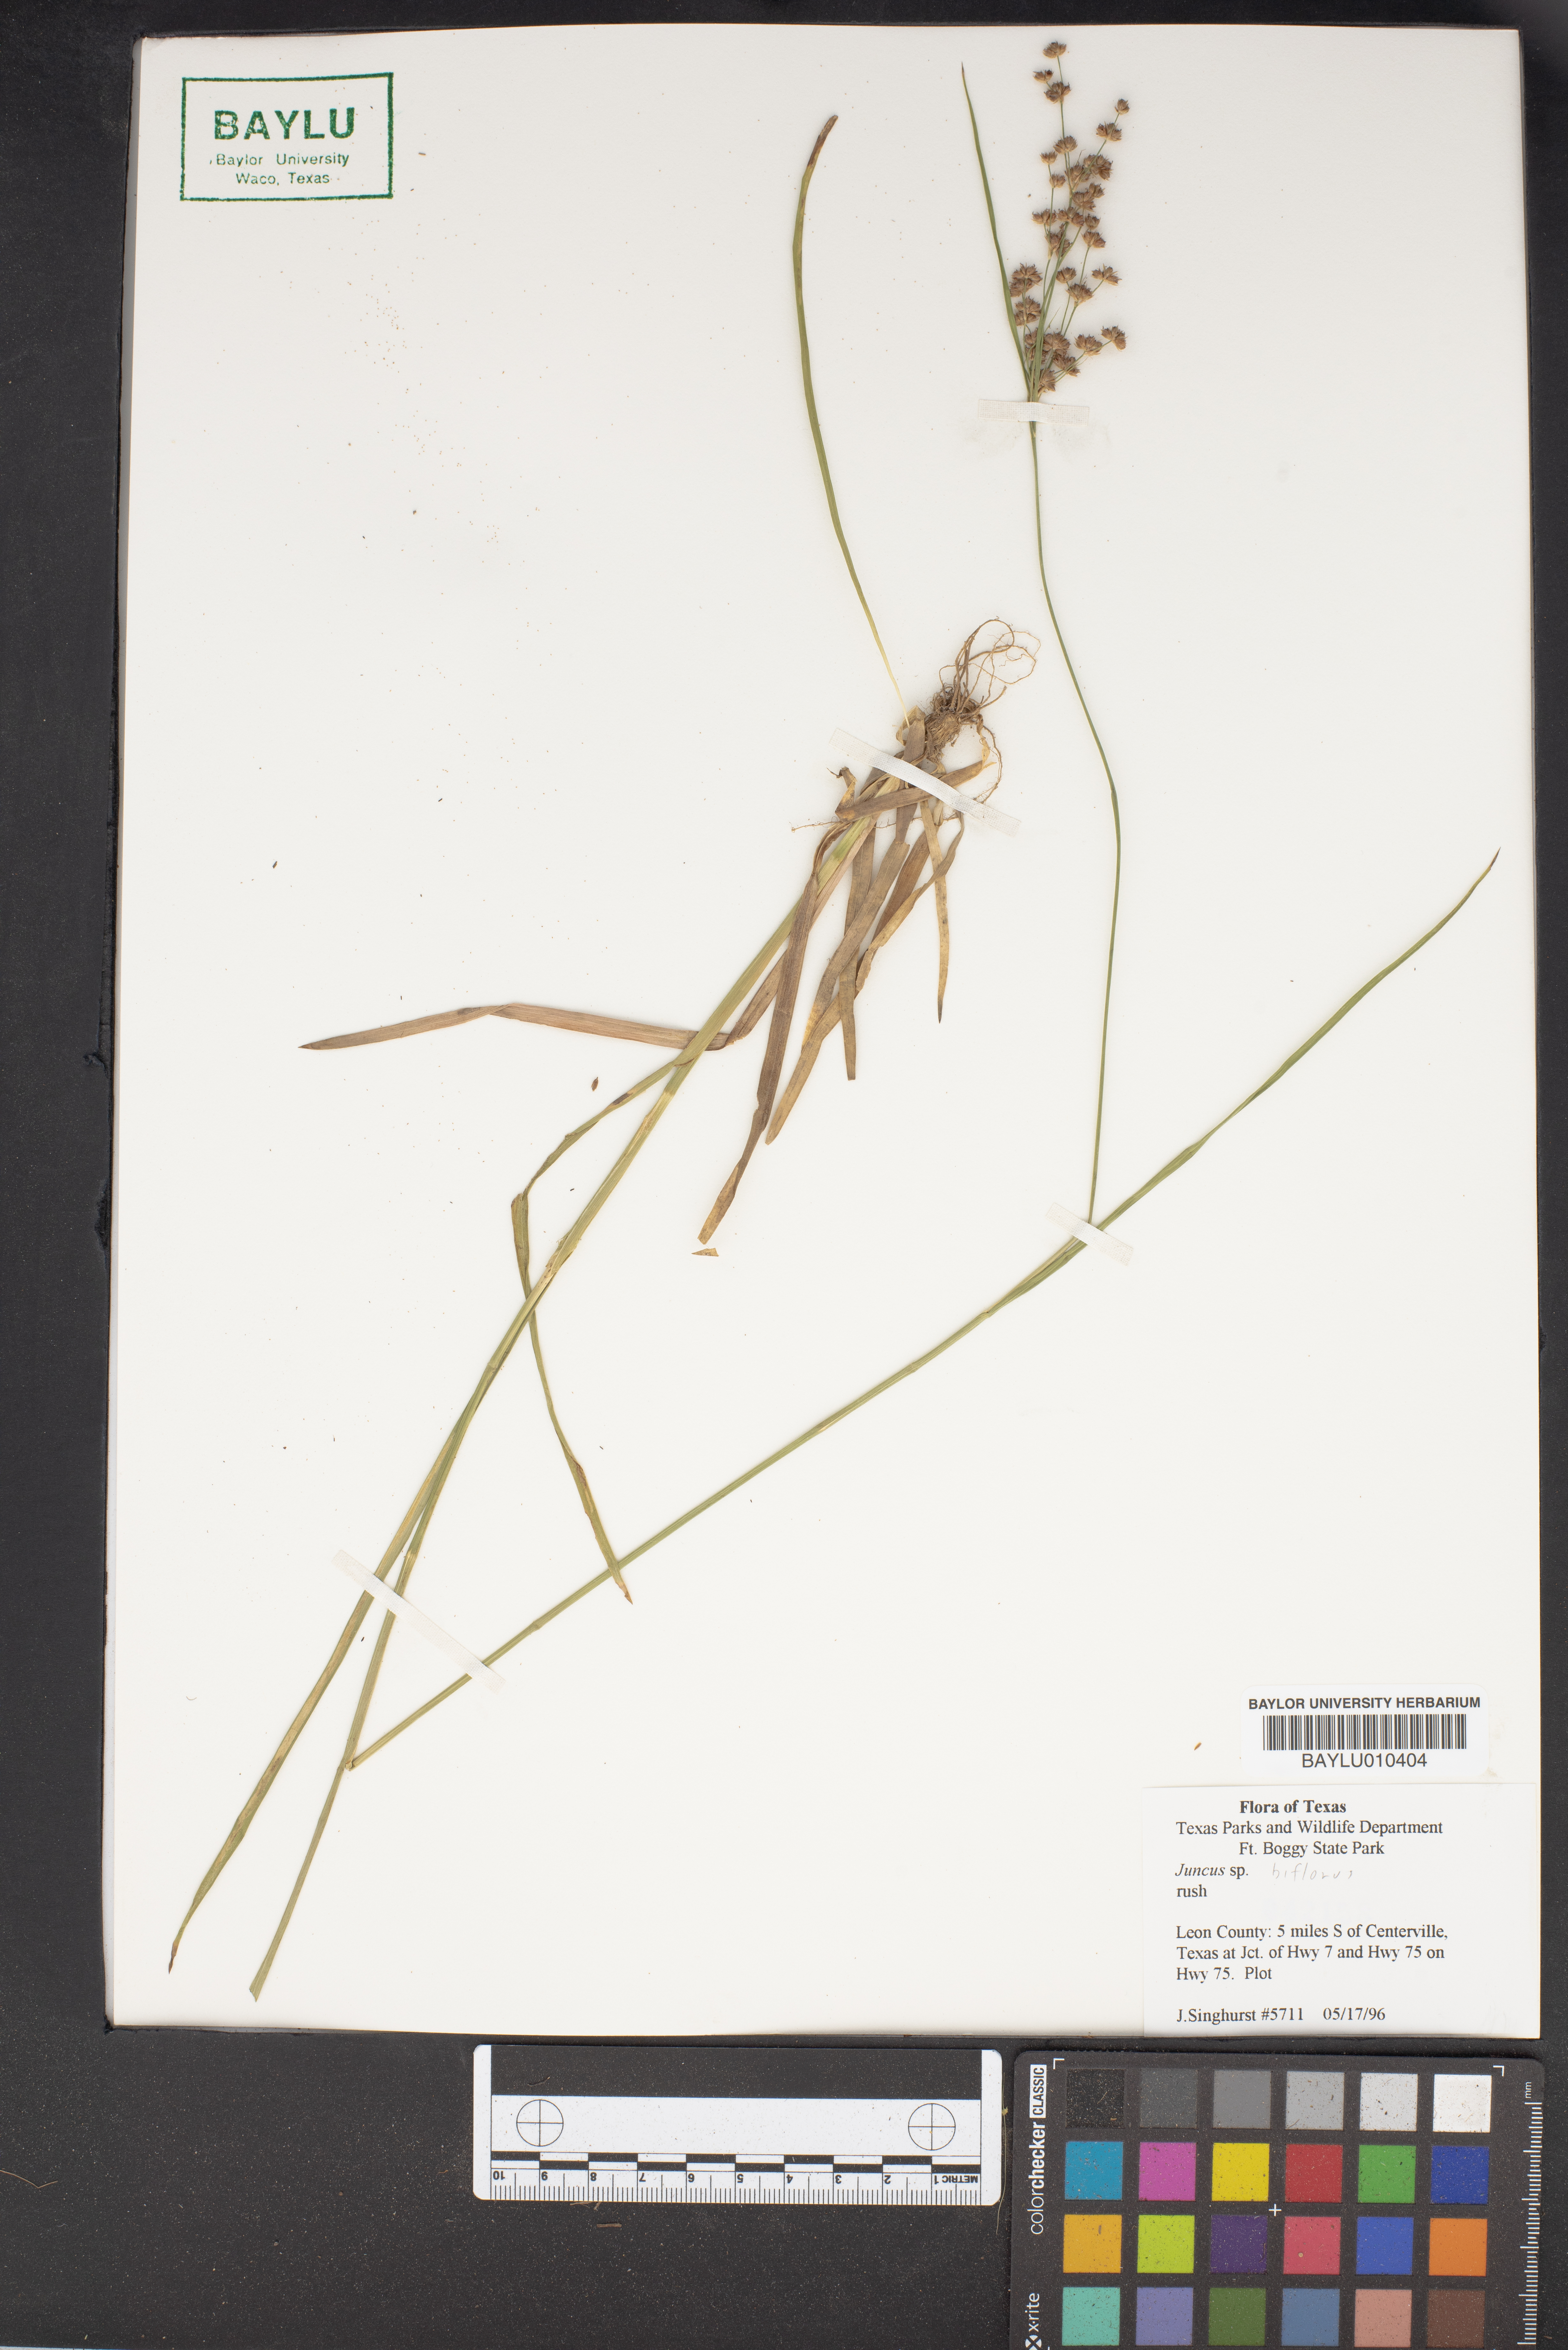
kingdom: Plantae
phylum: Tracheophyta
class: Liliopsida
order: Poales
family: Juncaceae
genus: Juncus
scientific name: Juncus biflorus
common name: Two-flowered rush
